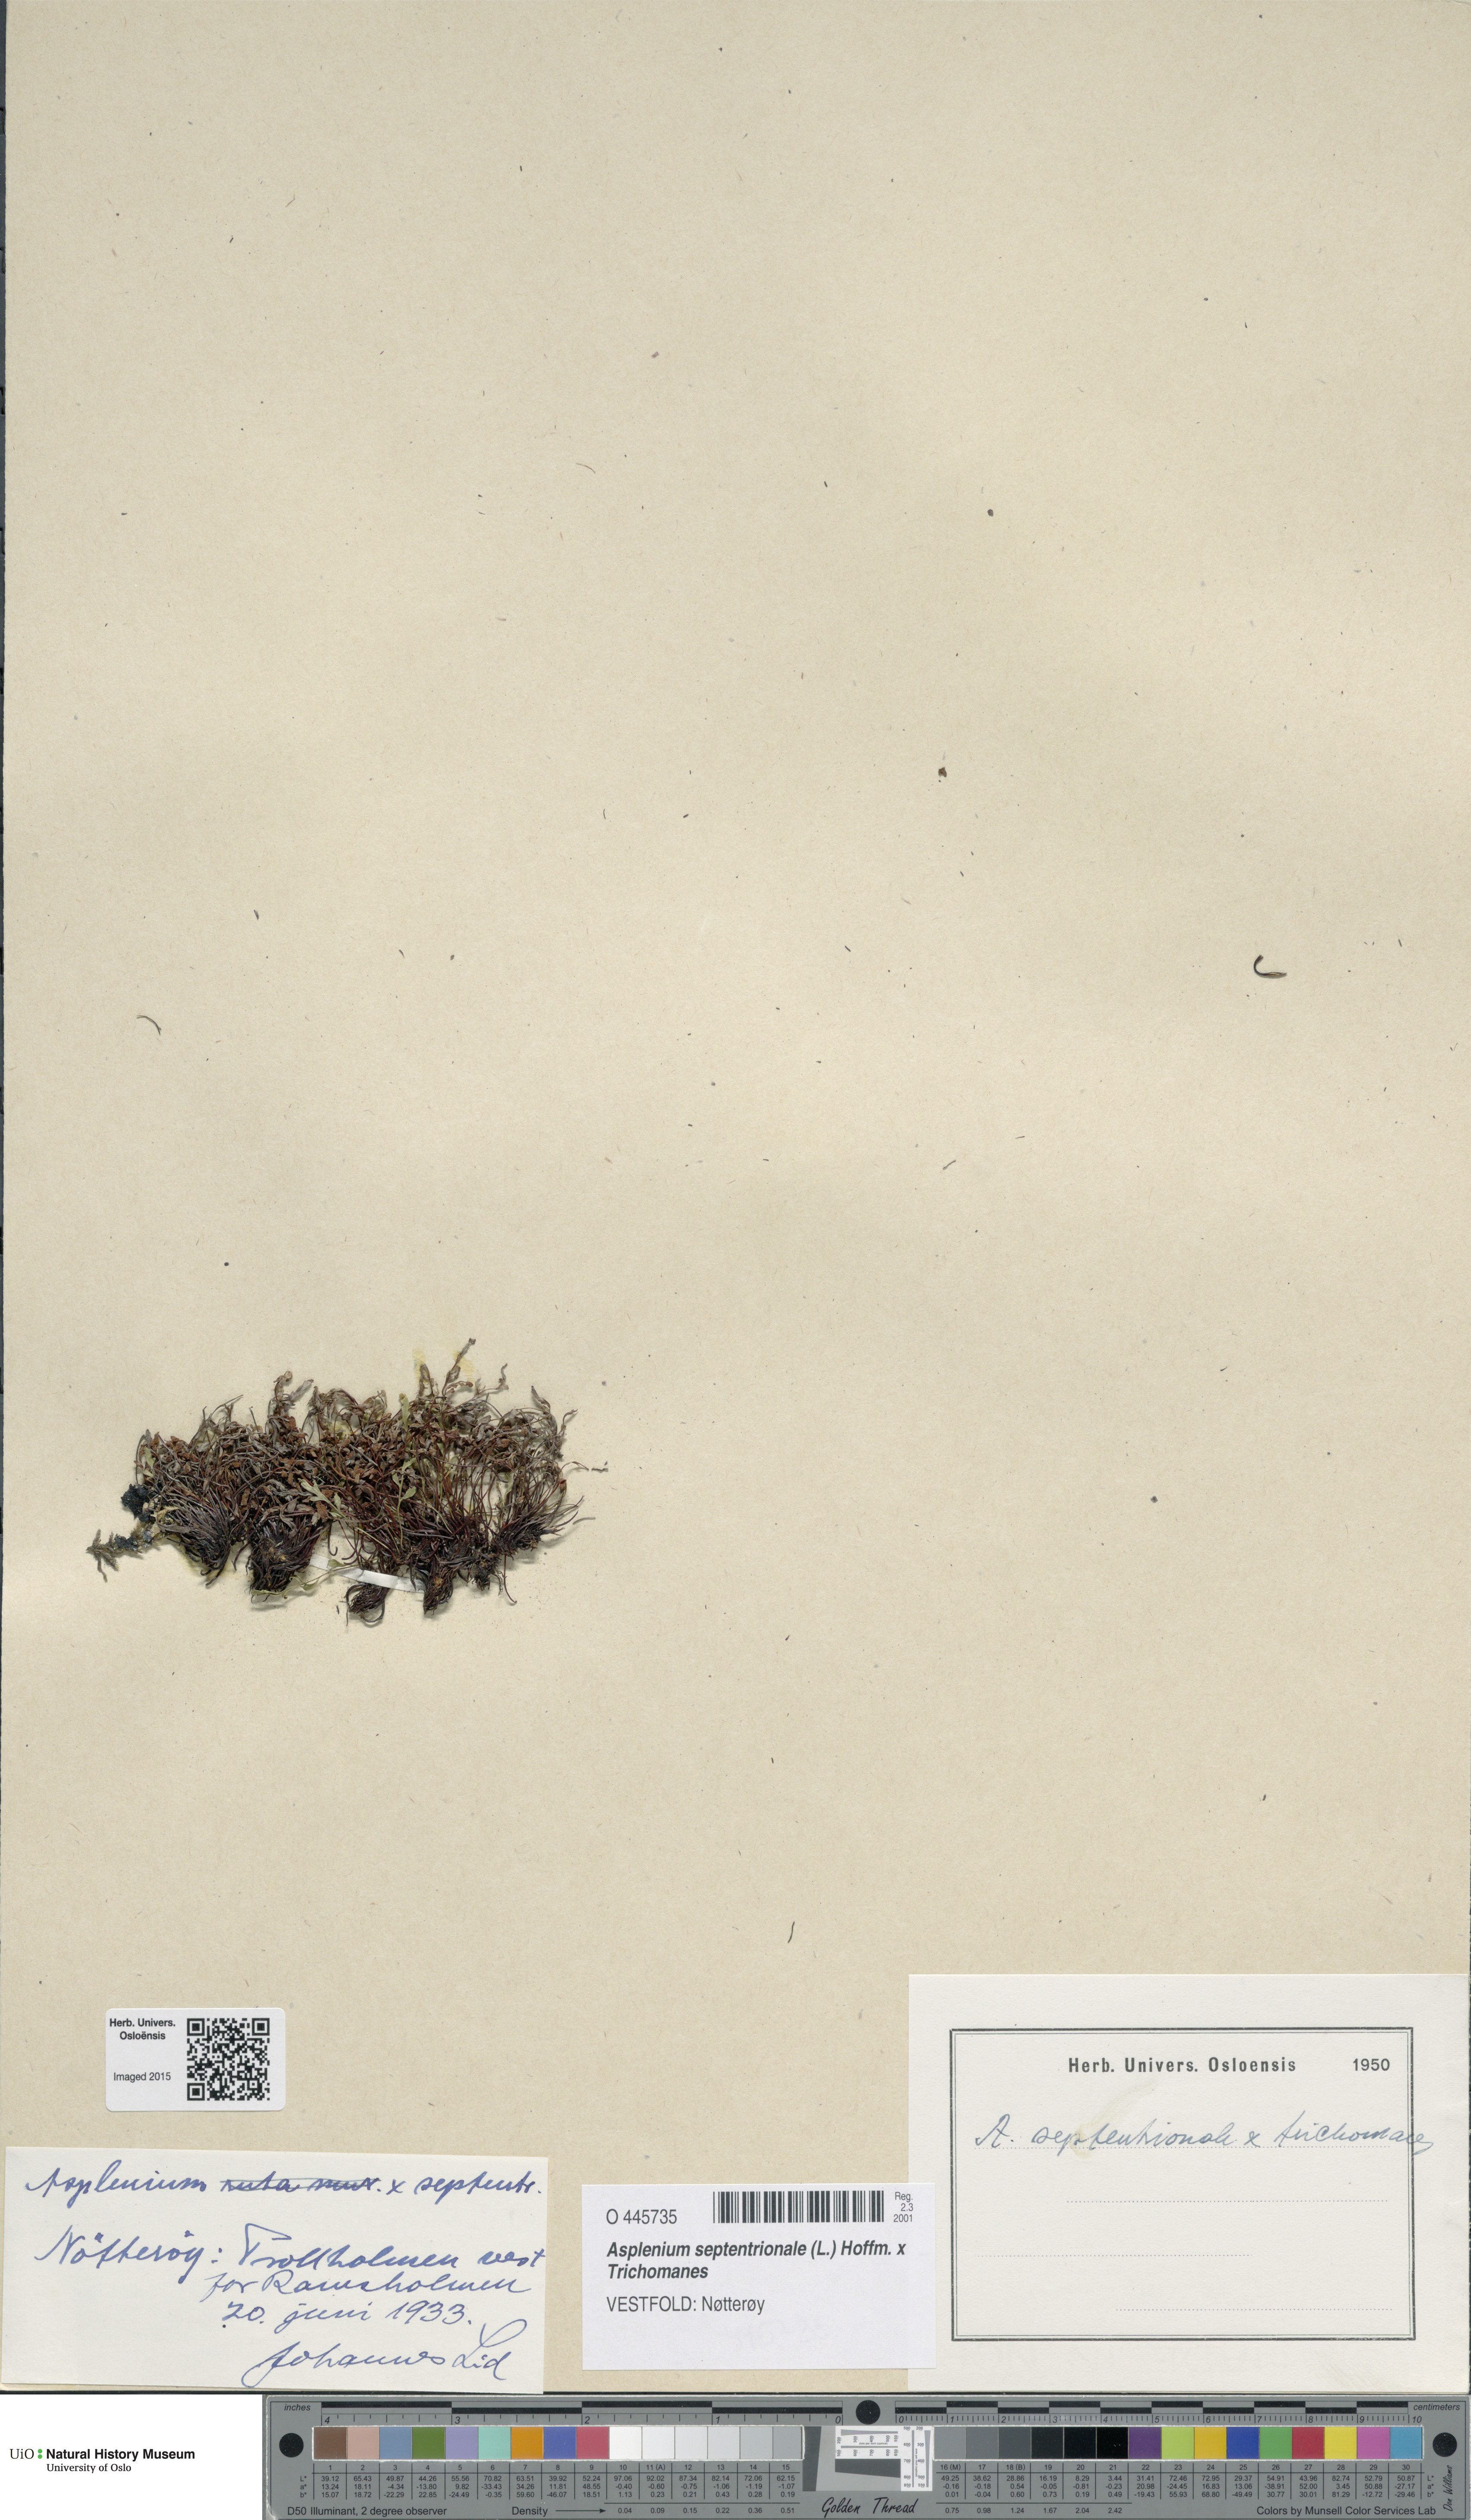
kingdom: Plantae
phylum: Tracheophyta
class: Polypodiopsida
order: Polypodiales
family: Aspleniaceae
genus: Asplenium
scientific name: Asplenium
